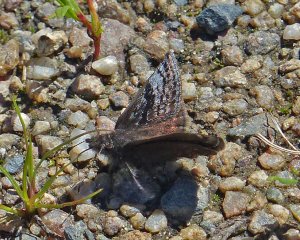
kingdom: Animalia
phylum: Arthropoda
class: Insecta
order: Lepidoptera
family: Hesperiidae
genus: Erynnis
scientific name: Erynnis icelus
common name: Dreamy Duskywing
